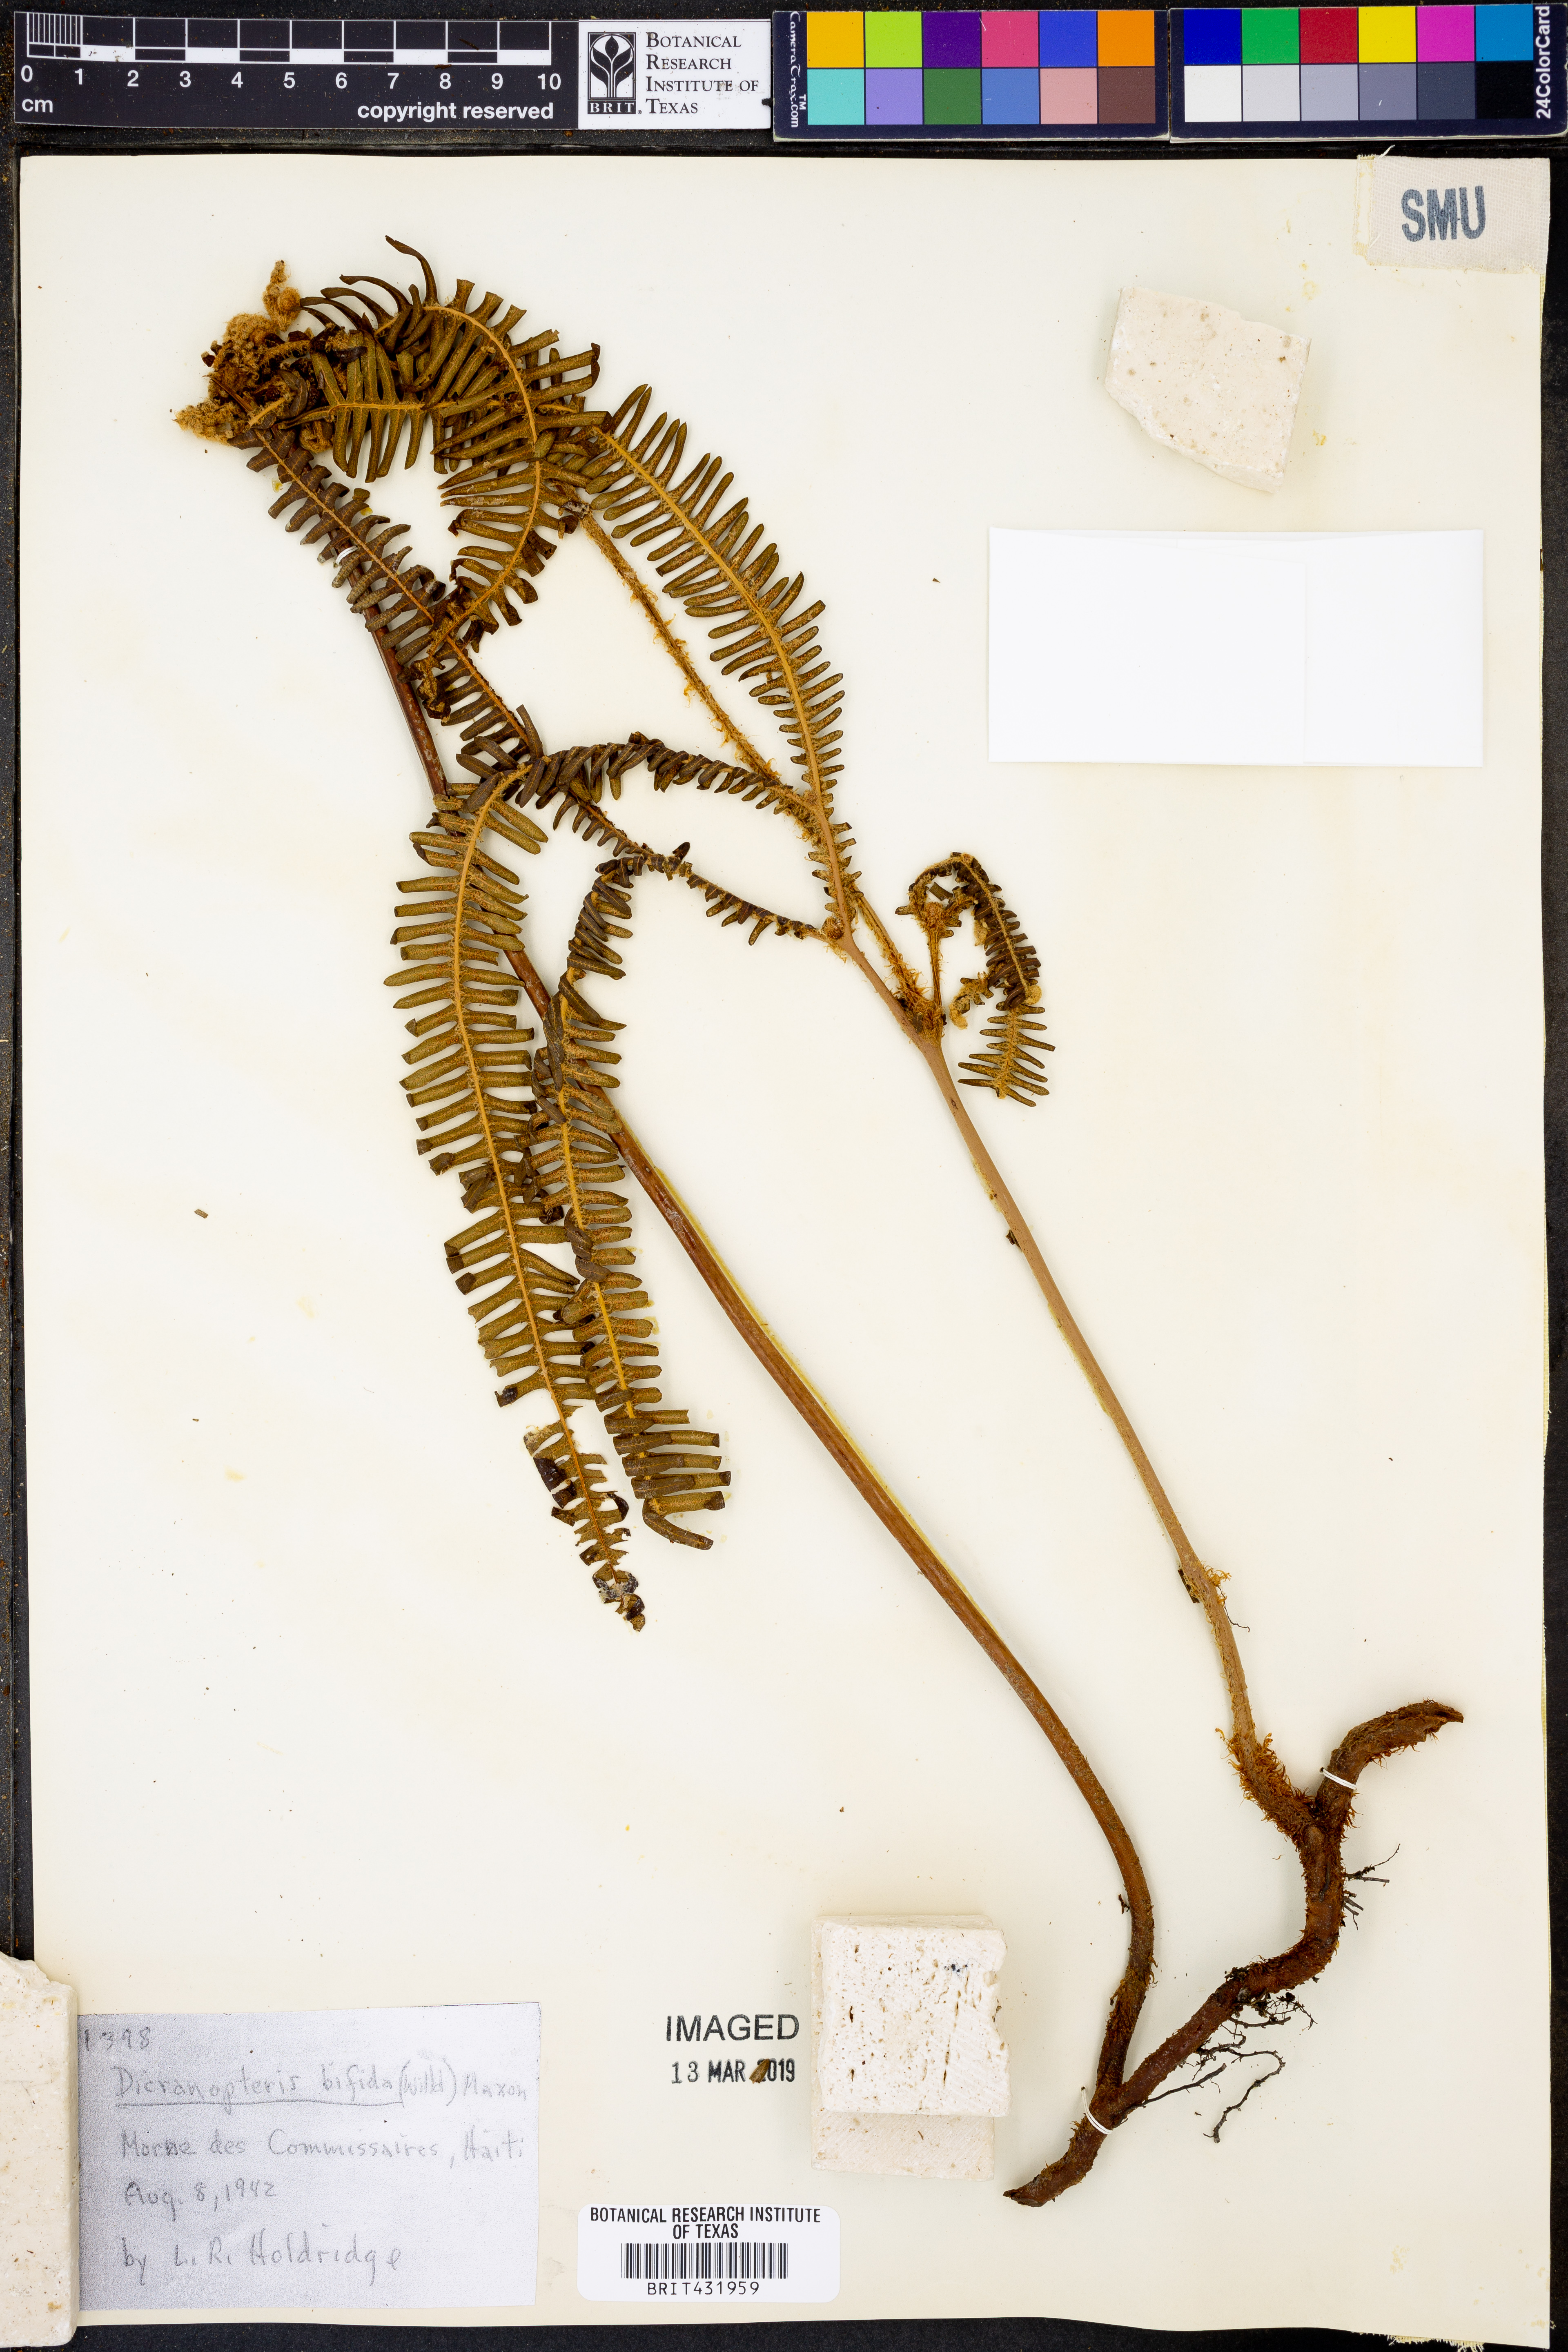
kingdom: Plantae
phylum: Tracheophyta
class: Polypodiopsida
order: Gleicheniales
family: Gleicheniaceae
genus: Sticherus
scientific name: Sticherus bifidus
